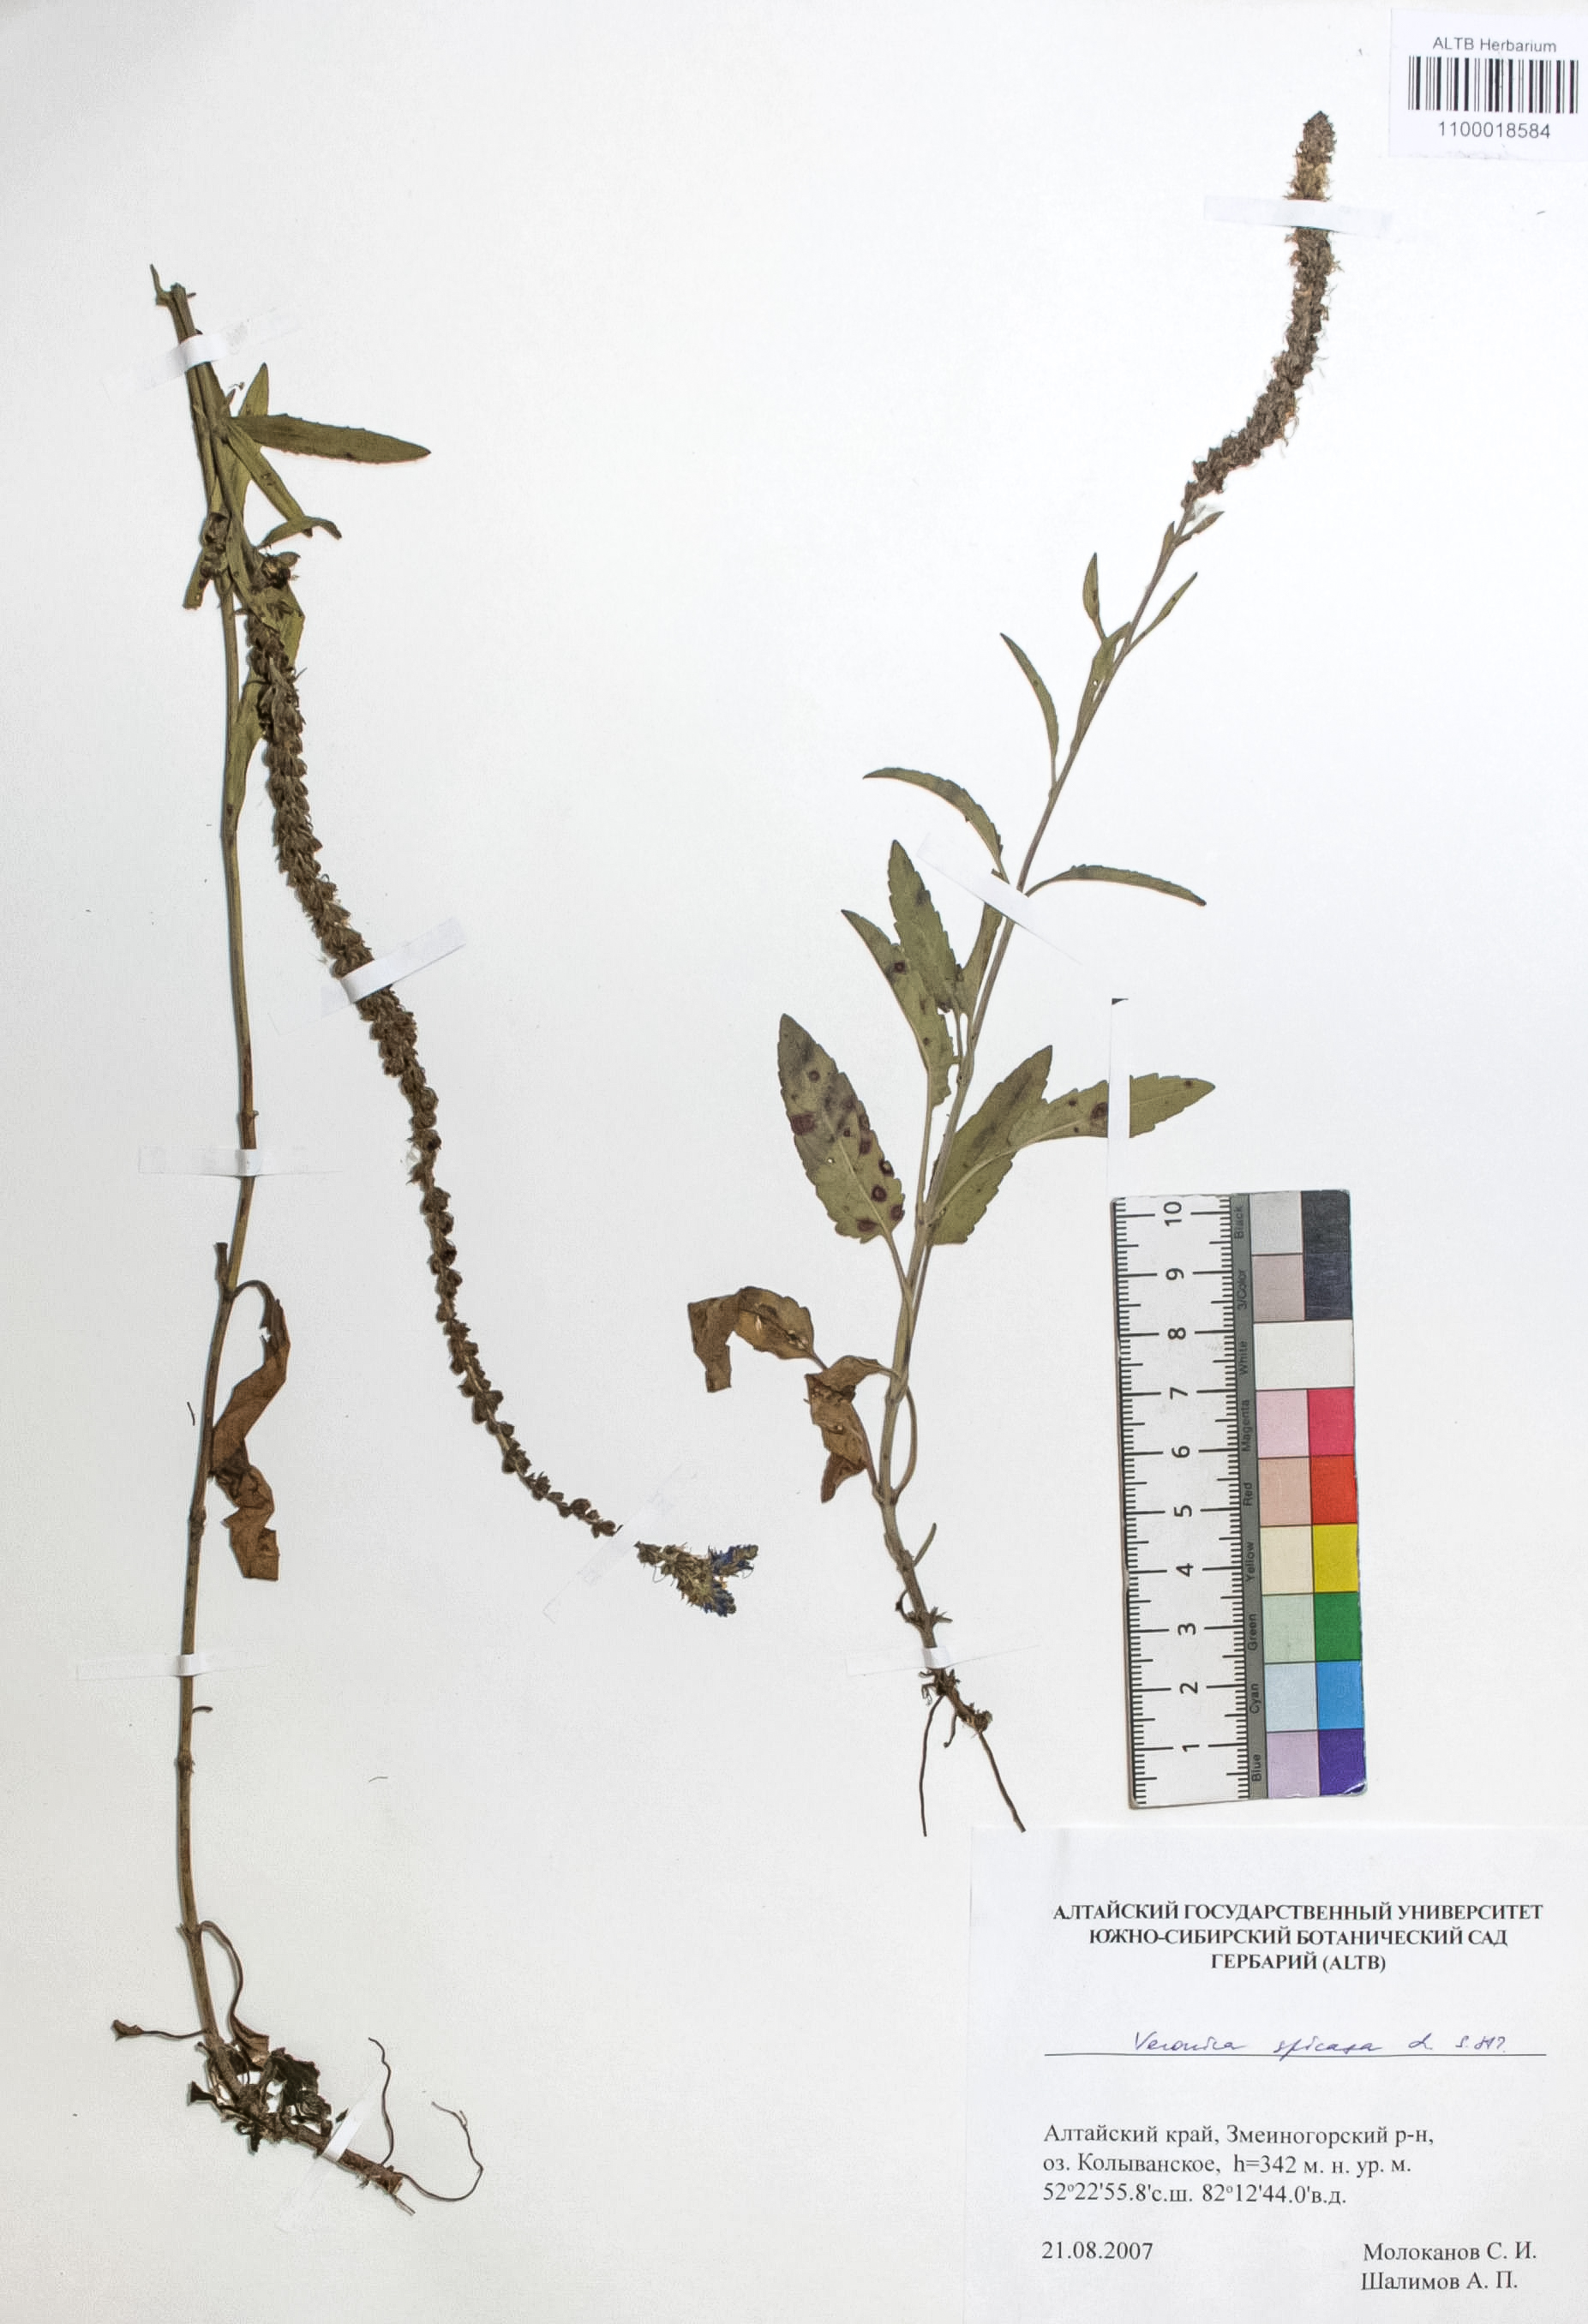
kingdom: Plantae
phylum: Tracheophyta
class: Magnoliopsida
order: Lamiales
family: Plantaginaceae
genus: Veronica
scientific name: Veronica spicata
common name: Spiked speedwell
